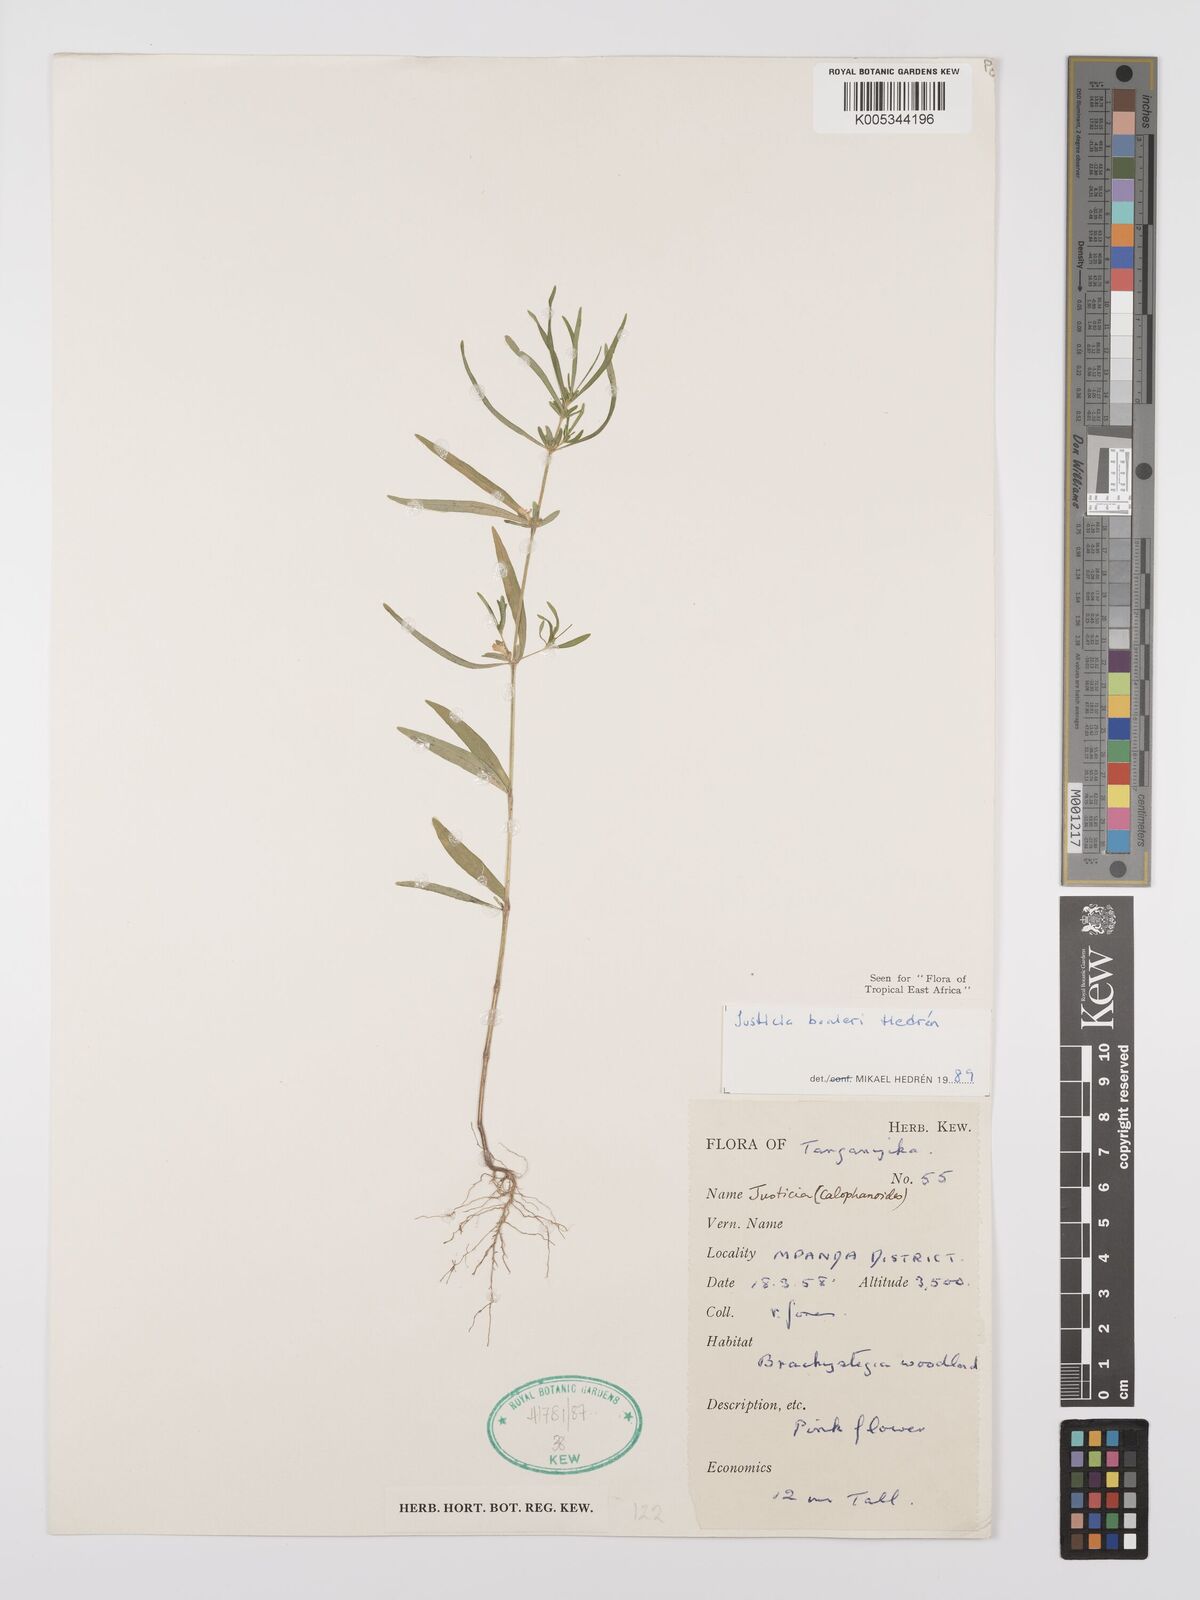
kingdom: Plantae
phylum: Tracheophyta
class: Magnoliopsida
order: Lamiales
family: Acanthaceae
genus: Justicia
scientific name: Justicia boaleri
